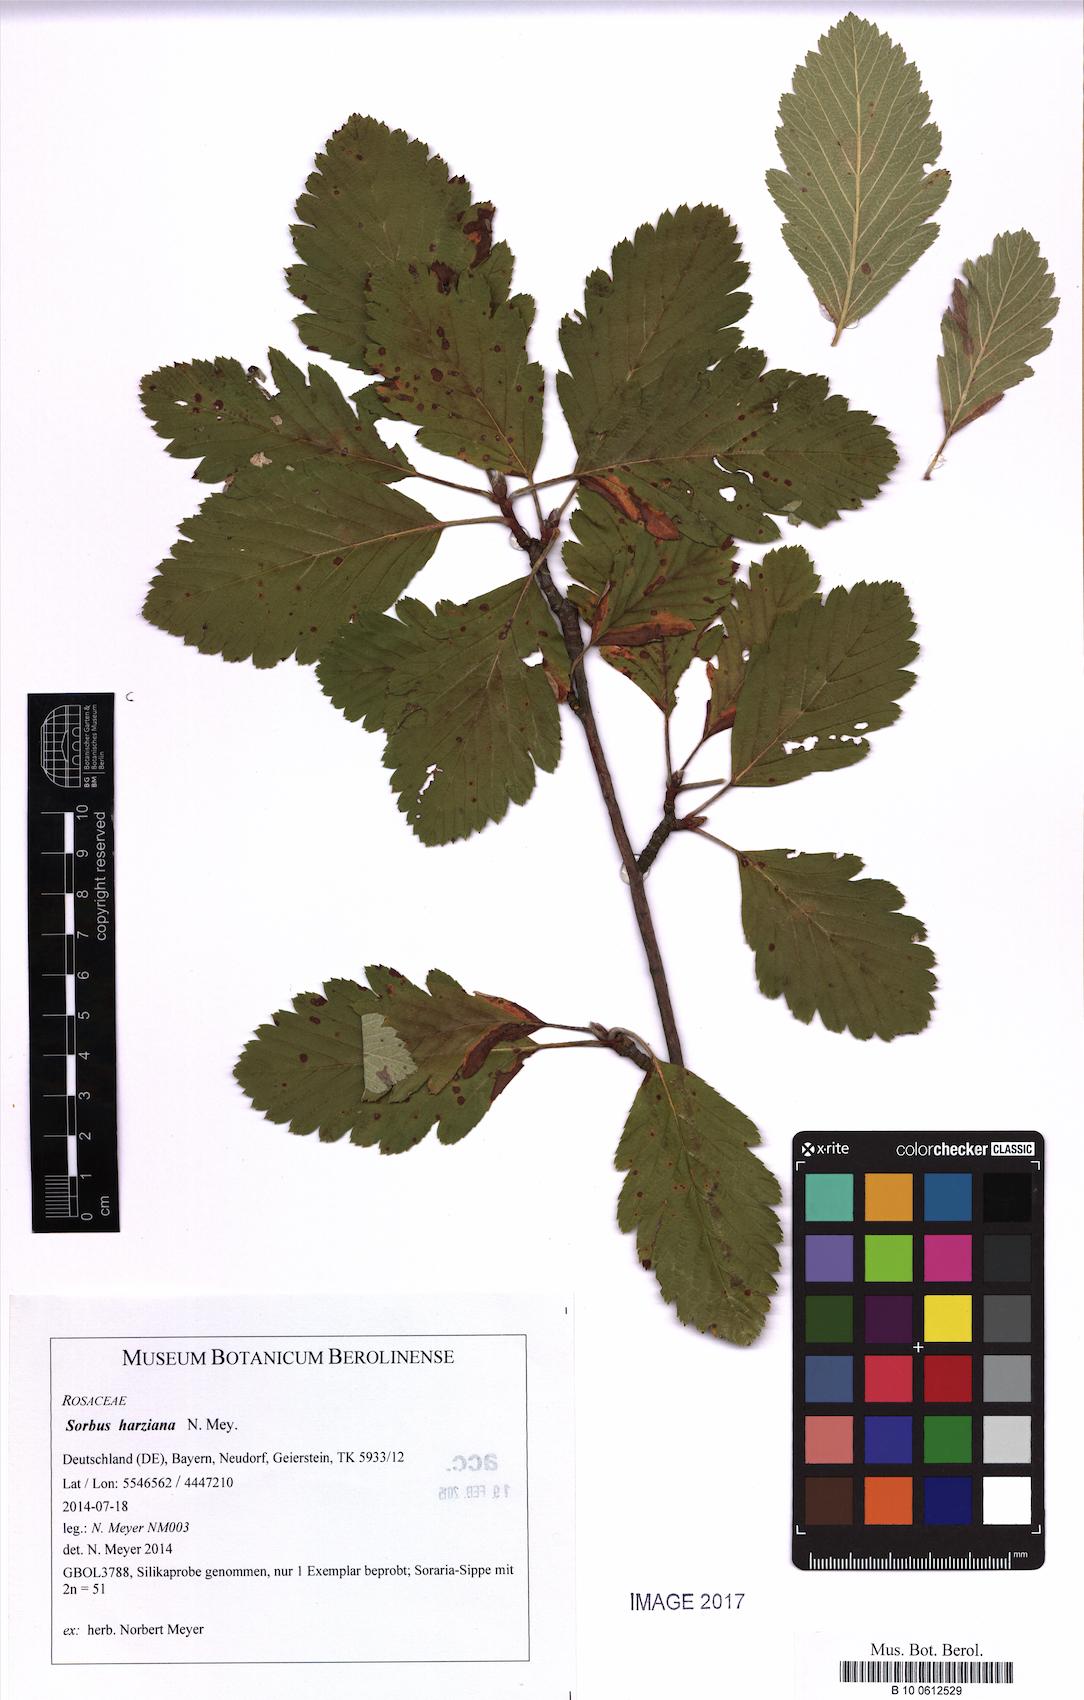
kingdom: Plantae
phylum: Tracheophyta
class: Magnoliopsida
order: Rosales
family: Rosaceae
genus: Hedlundia
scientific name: Hedlundia harziana
